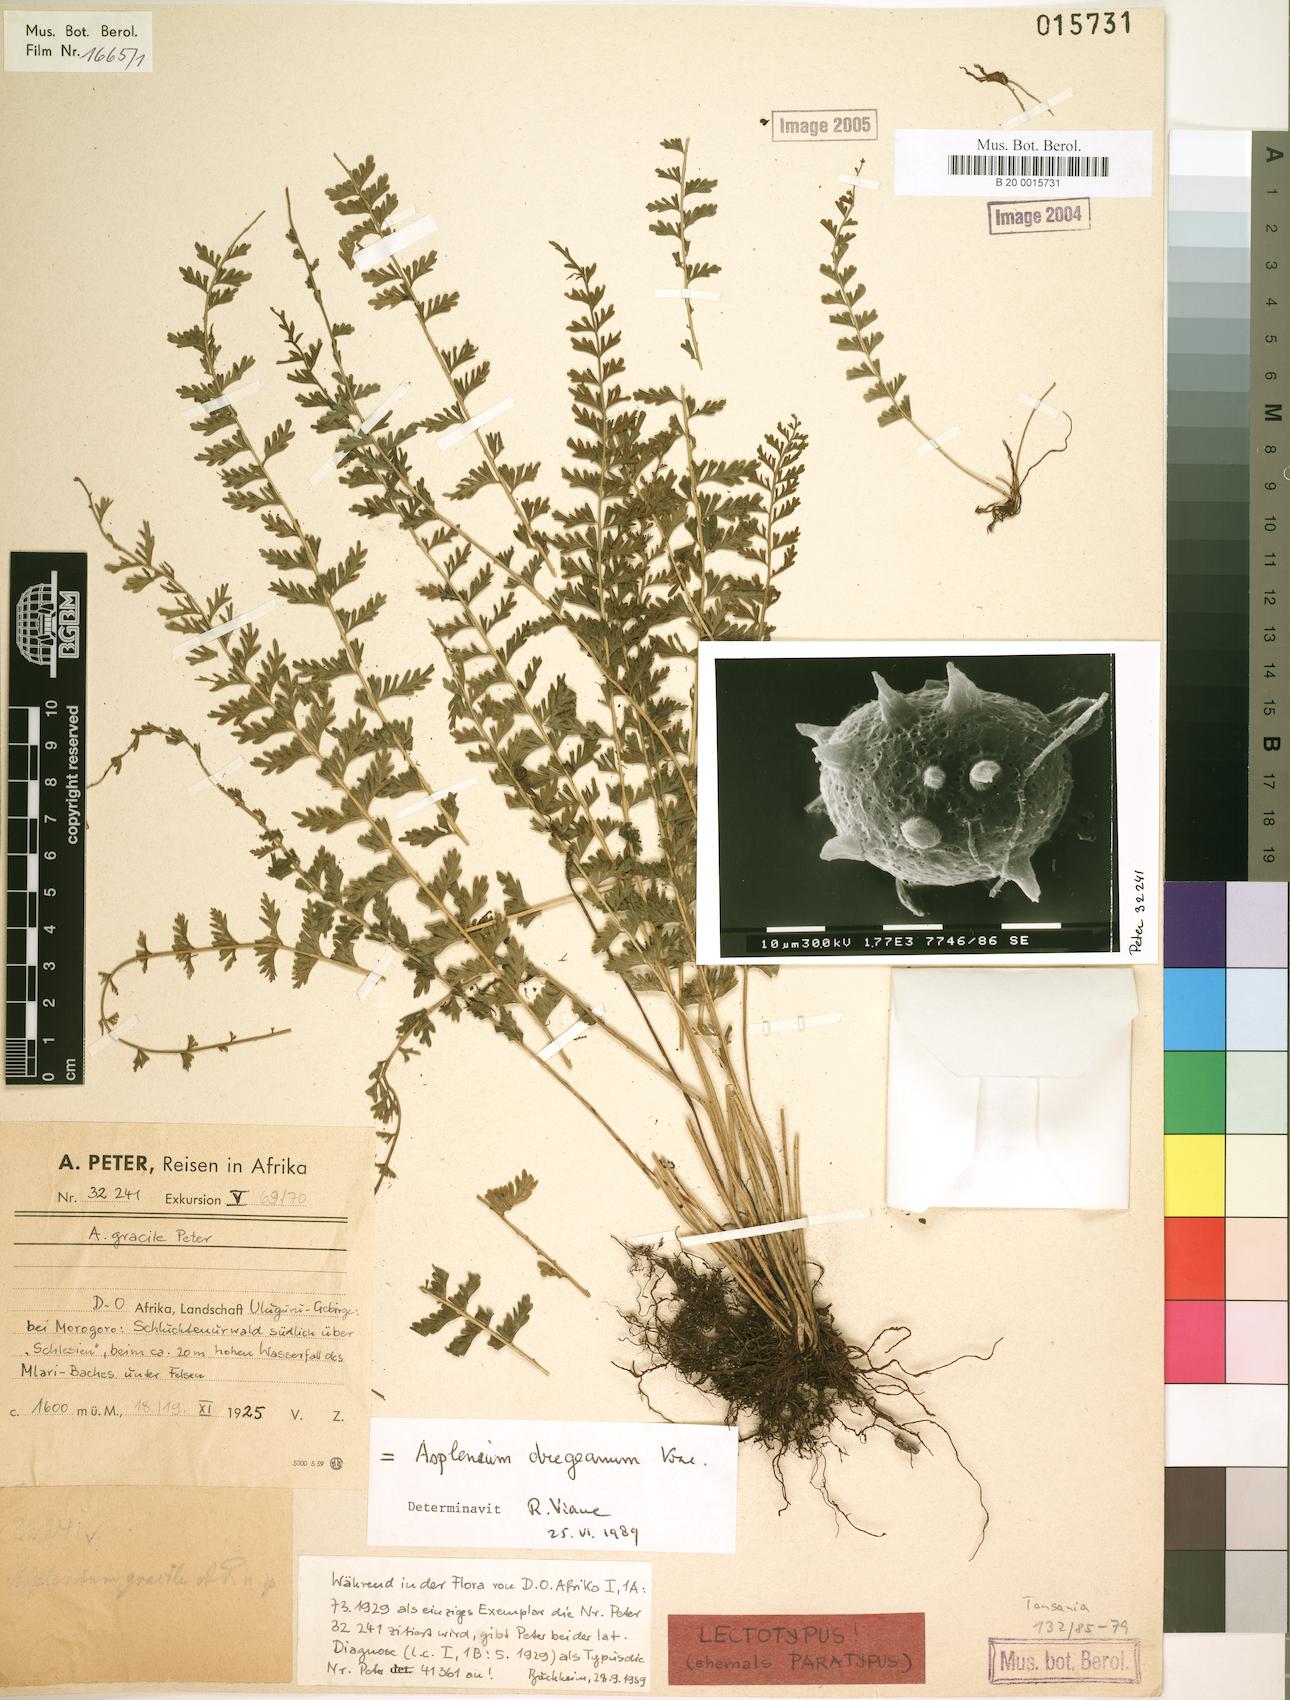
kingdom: Plantae
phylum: Tracheophyta
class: Polypodiopsida
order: Polypodiales
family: Aspleniaceae
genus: Asplenium
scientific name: Asplenium dregeanum
